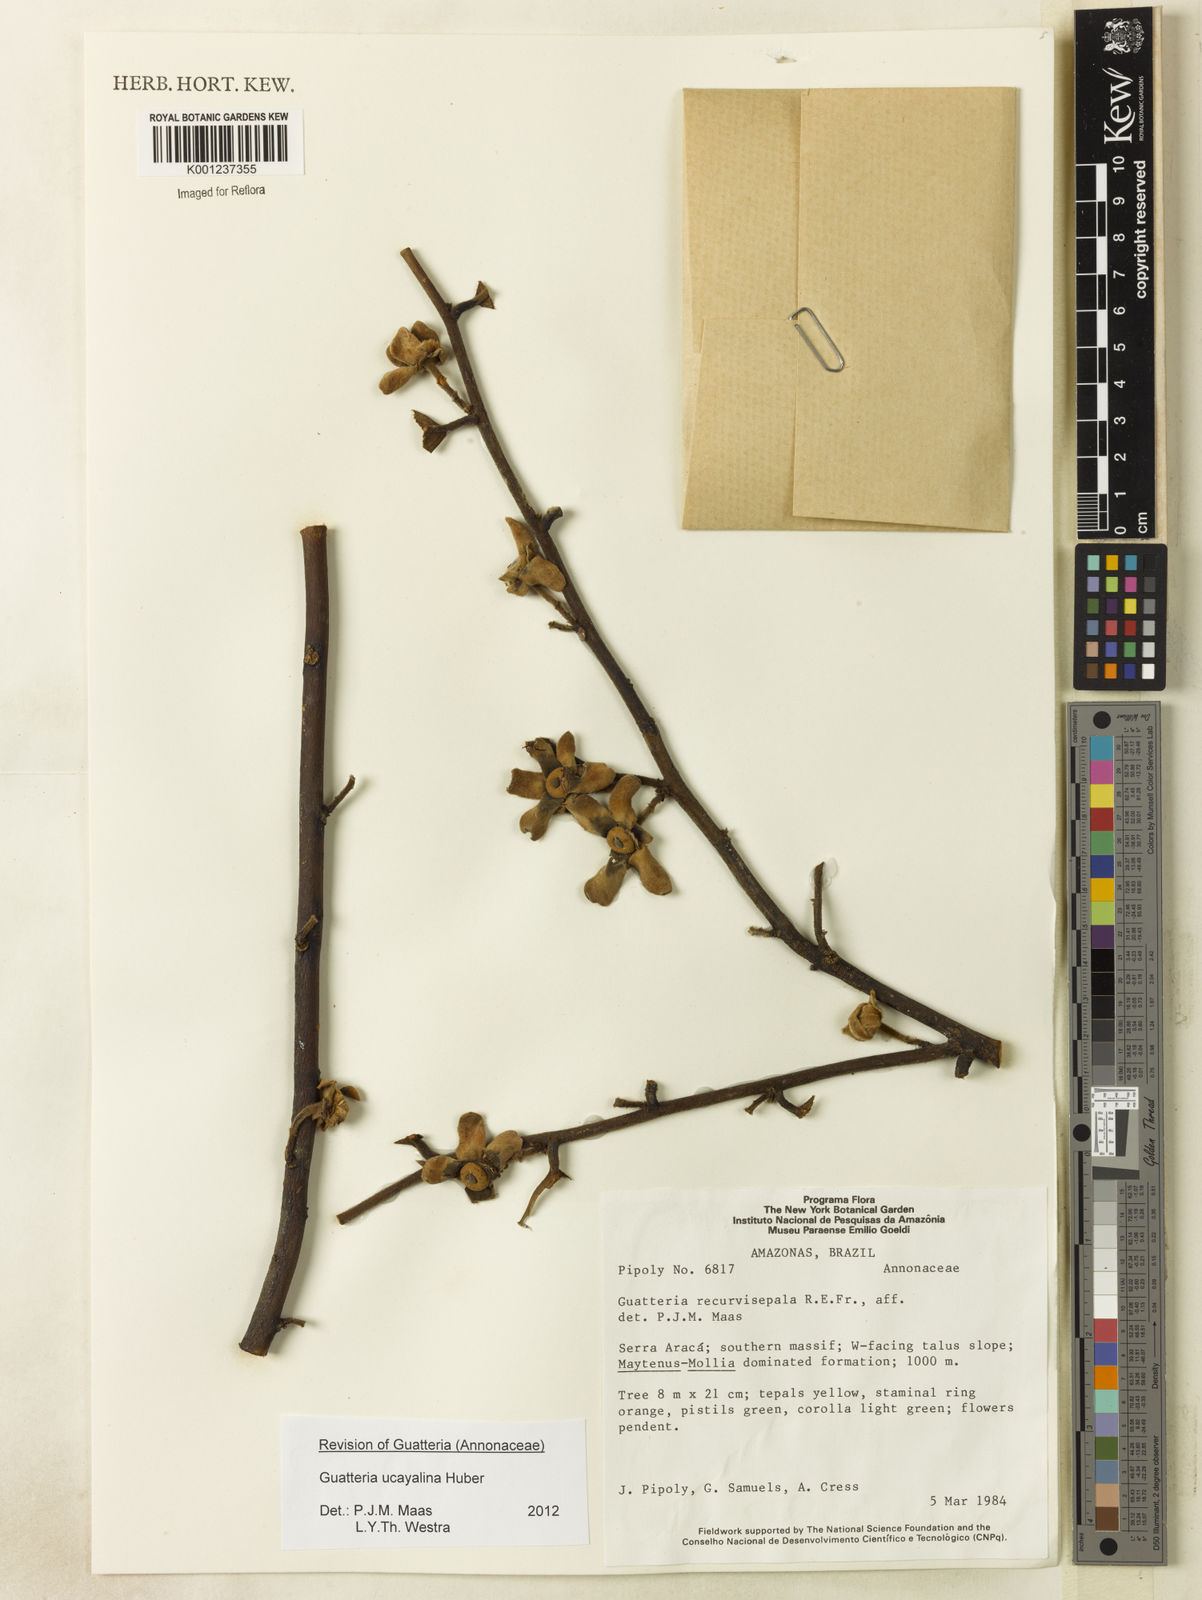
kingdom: Plantae
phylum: Tracheophyta
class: Magnoliopsida
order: Magnoliales
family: Annonaceae
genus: Guatteria
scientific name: Guatteria blepharophylla
